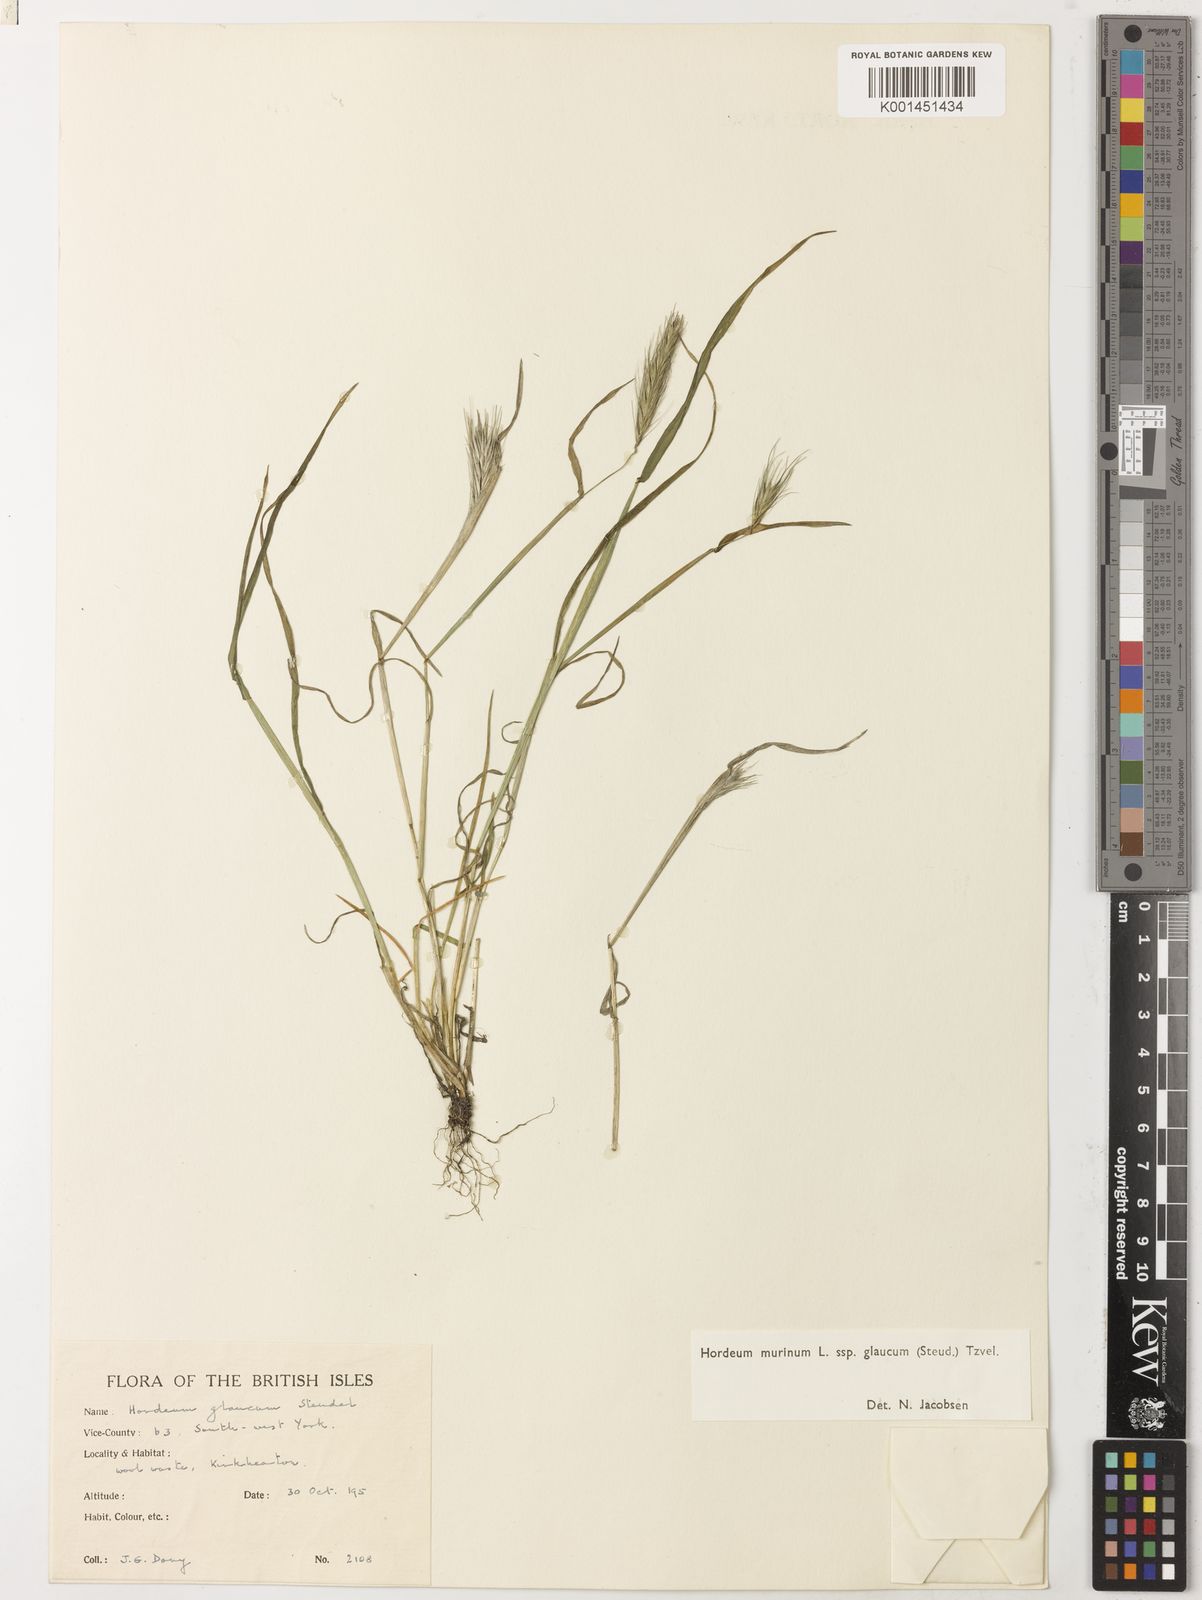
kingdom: Plantae
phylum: Tracheophyta
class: Liliopsida
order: Poales
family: Poaceae
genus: Hordeum
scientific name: Hordeum murinum
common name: Wall barley
